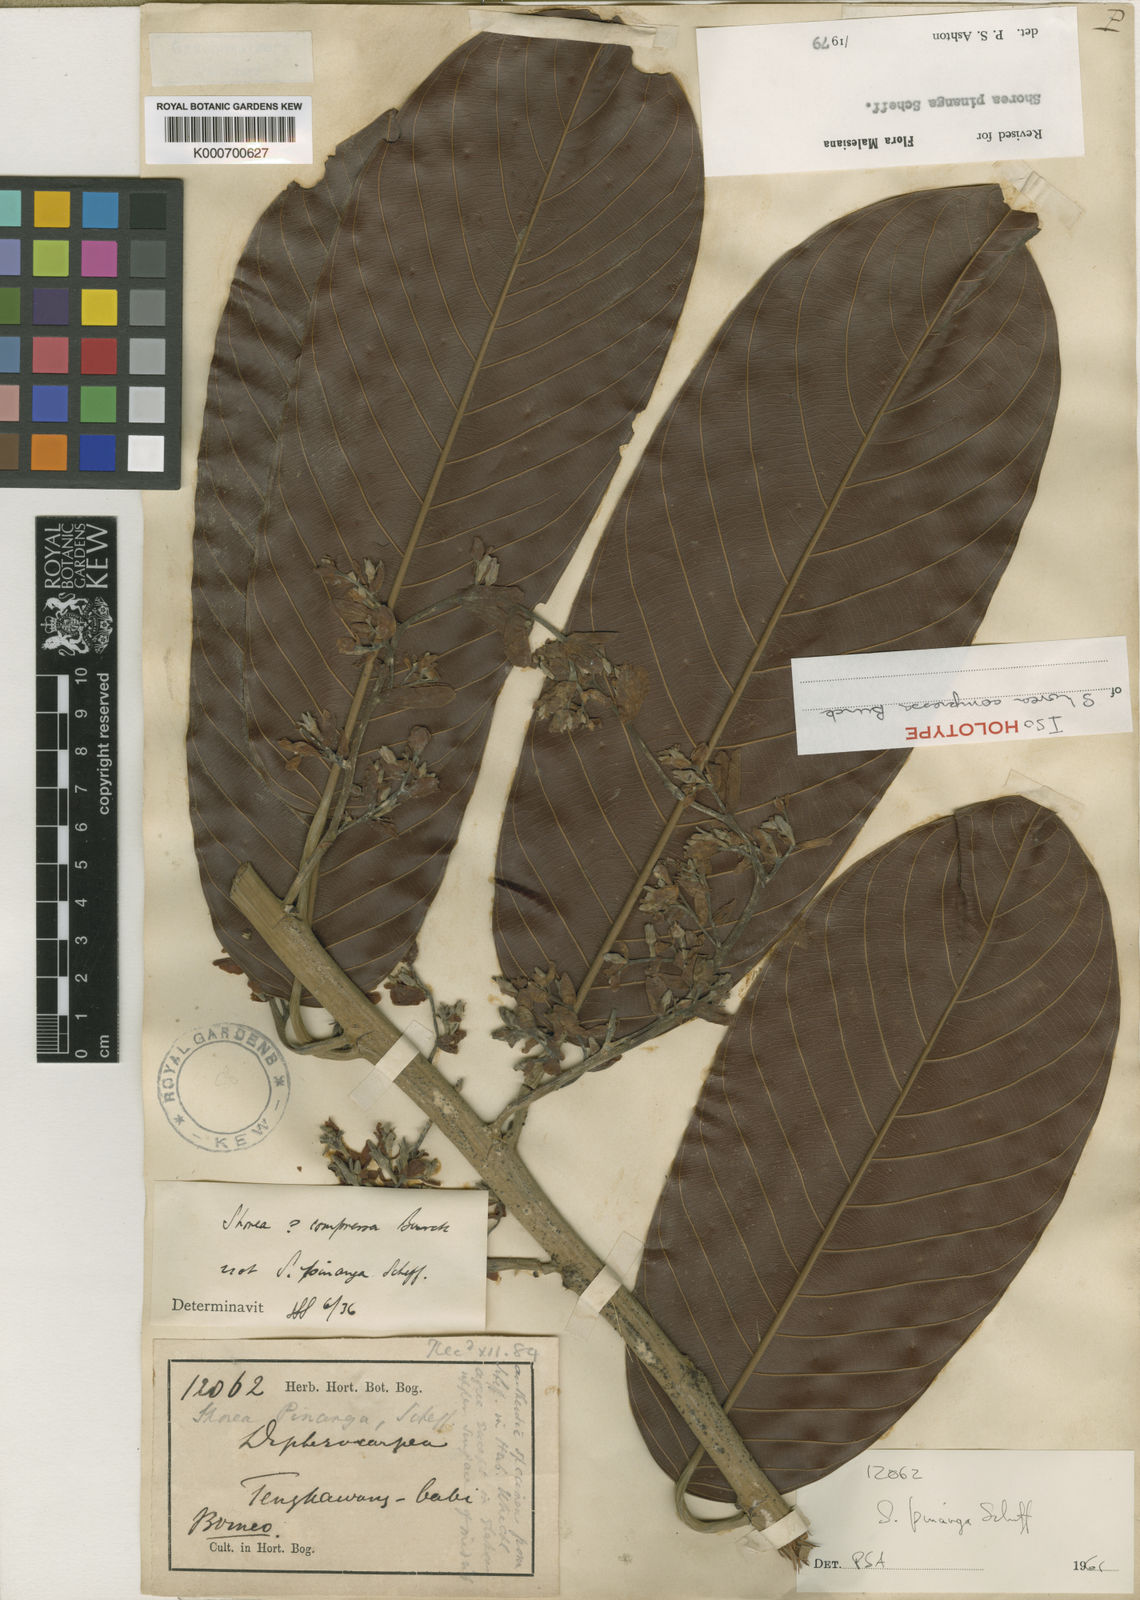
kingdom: Plantae
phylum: Tracheophyta
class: Magnoliopsida
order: Malvales
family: Dipterocarpaceae
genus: Shorea
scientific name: Shorea pinanga
